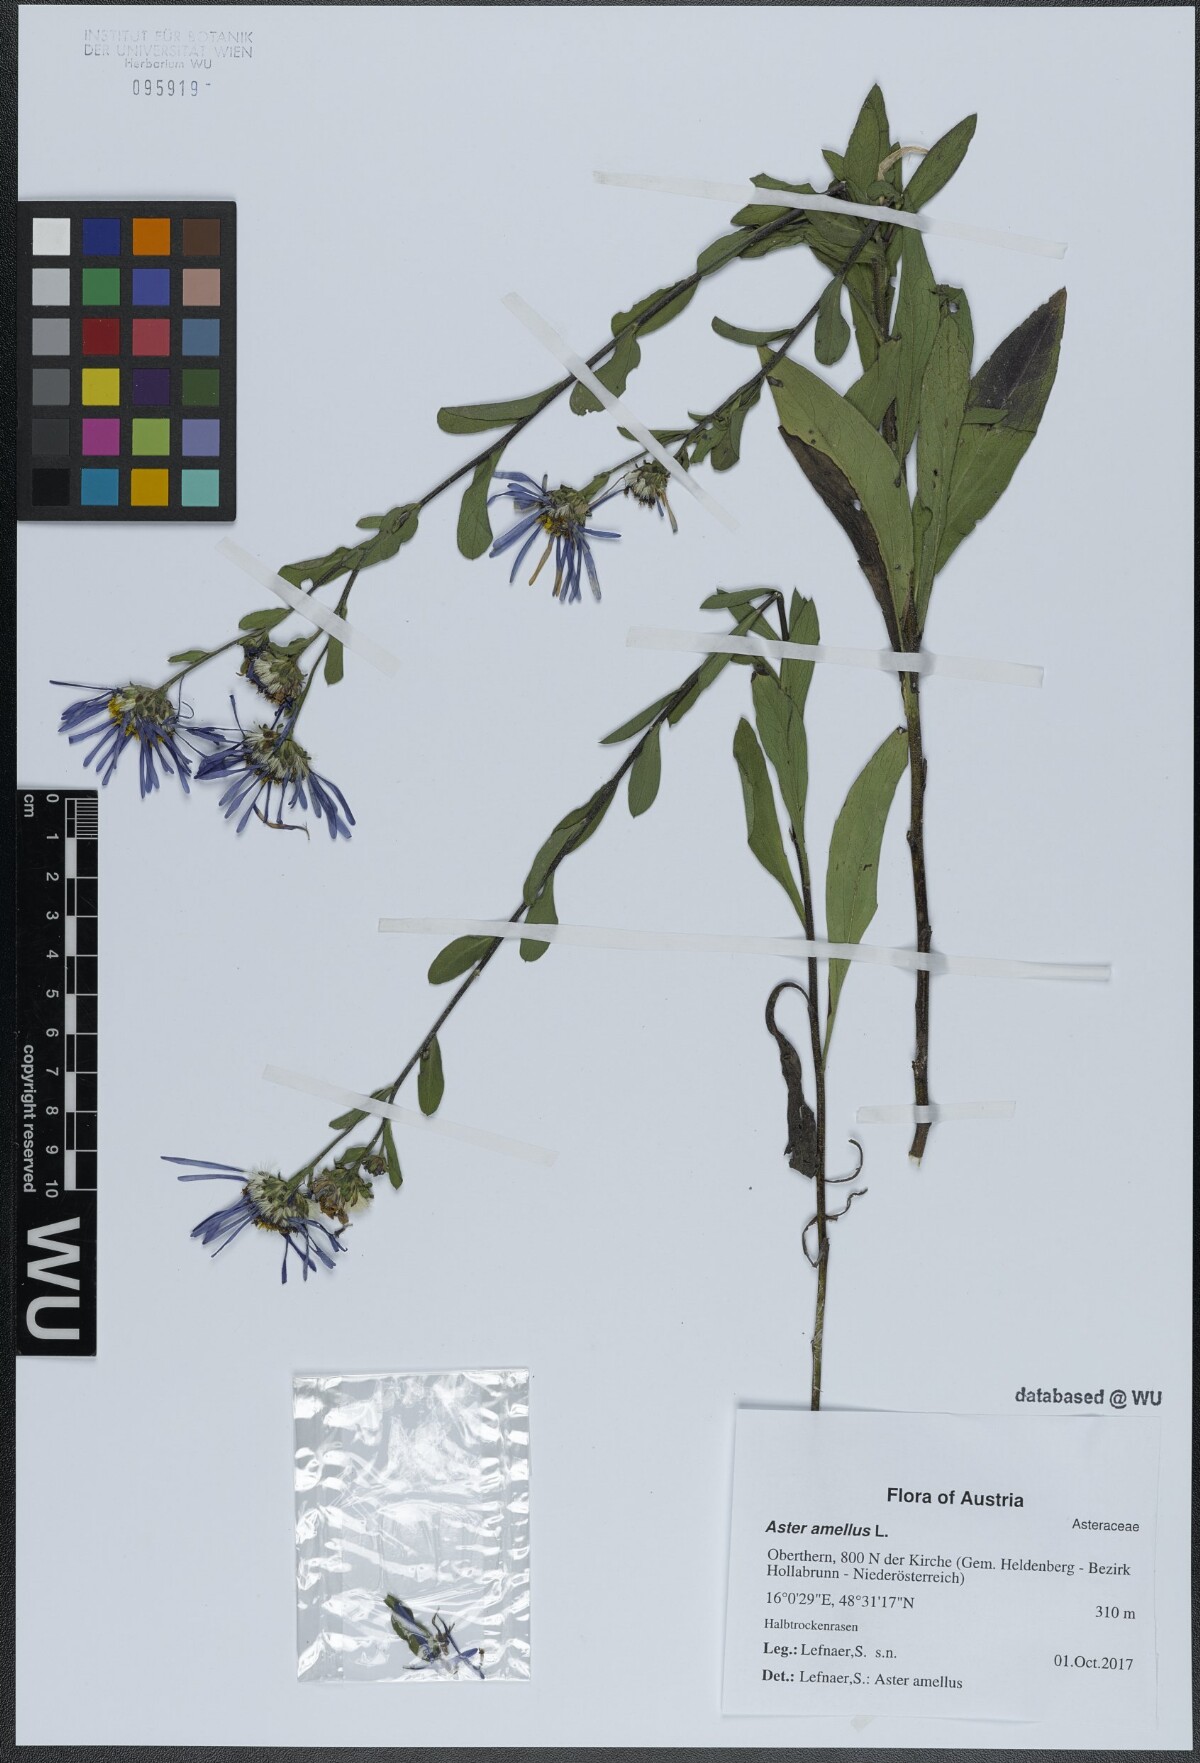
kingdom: Plantae
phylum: Tracheophyta
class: Magnoliopsida
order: Asterales
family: Asteraceae
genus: Aster
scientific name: Aster amellus
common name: European michaelmas daisy
